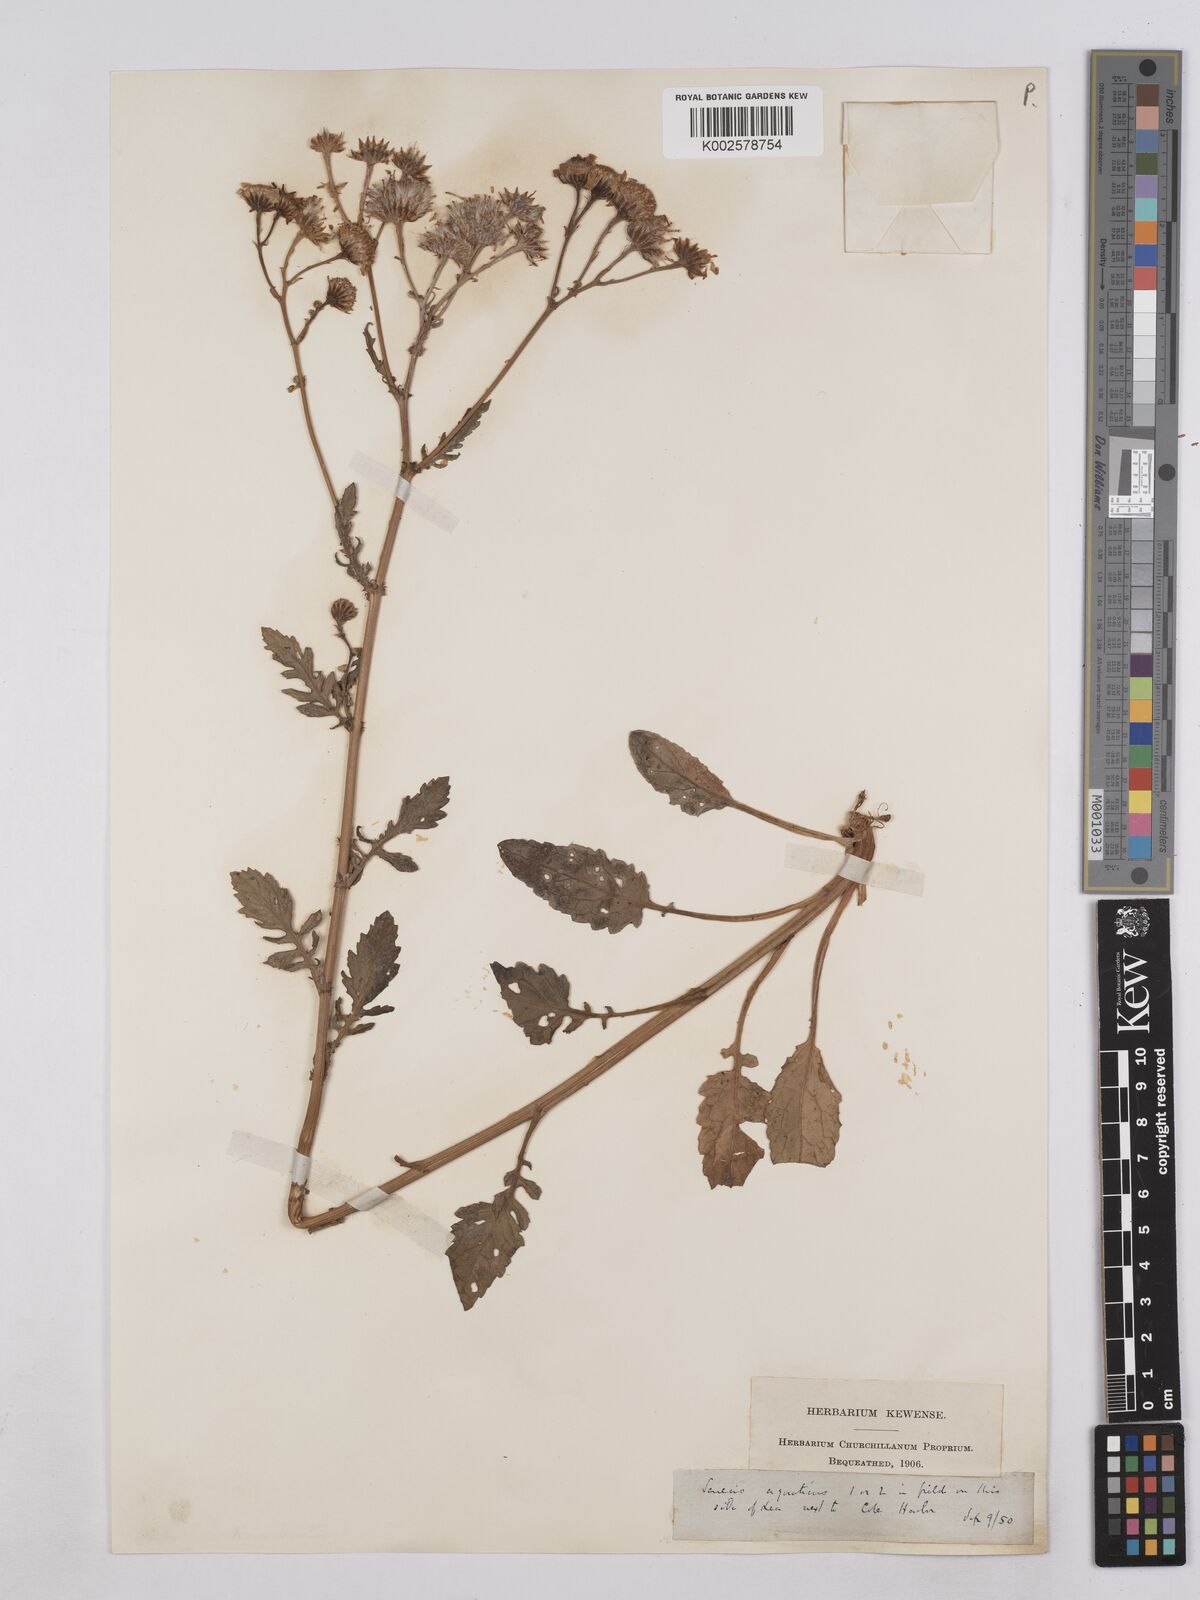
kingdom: Plantae
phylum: Tracheophyta
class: Magnoliopsida
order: Asterales
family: Asteraceae
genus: Jacobaea
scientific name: Jacobaea aquatica
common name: Water ragwort
